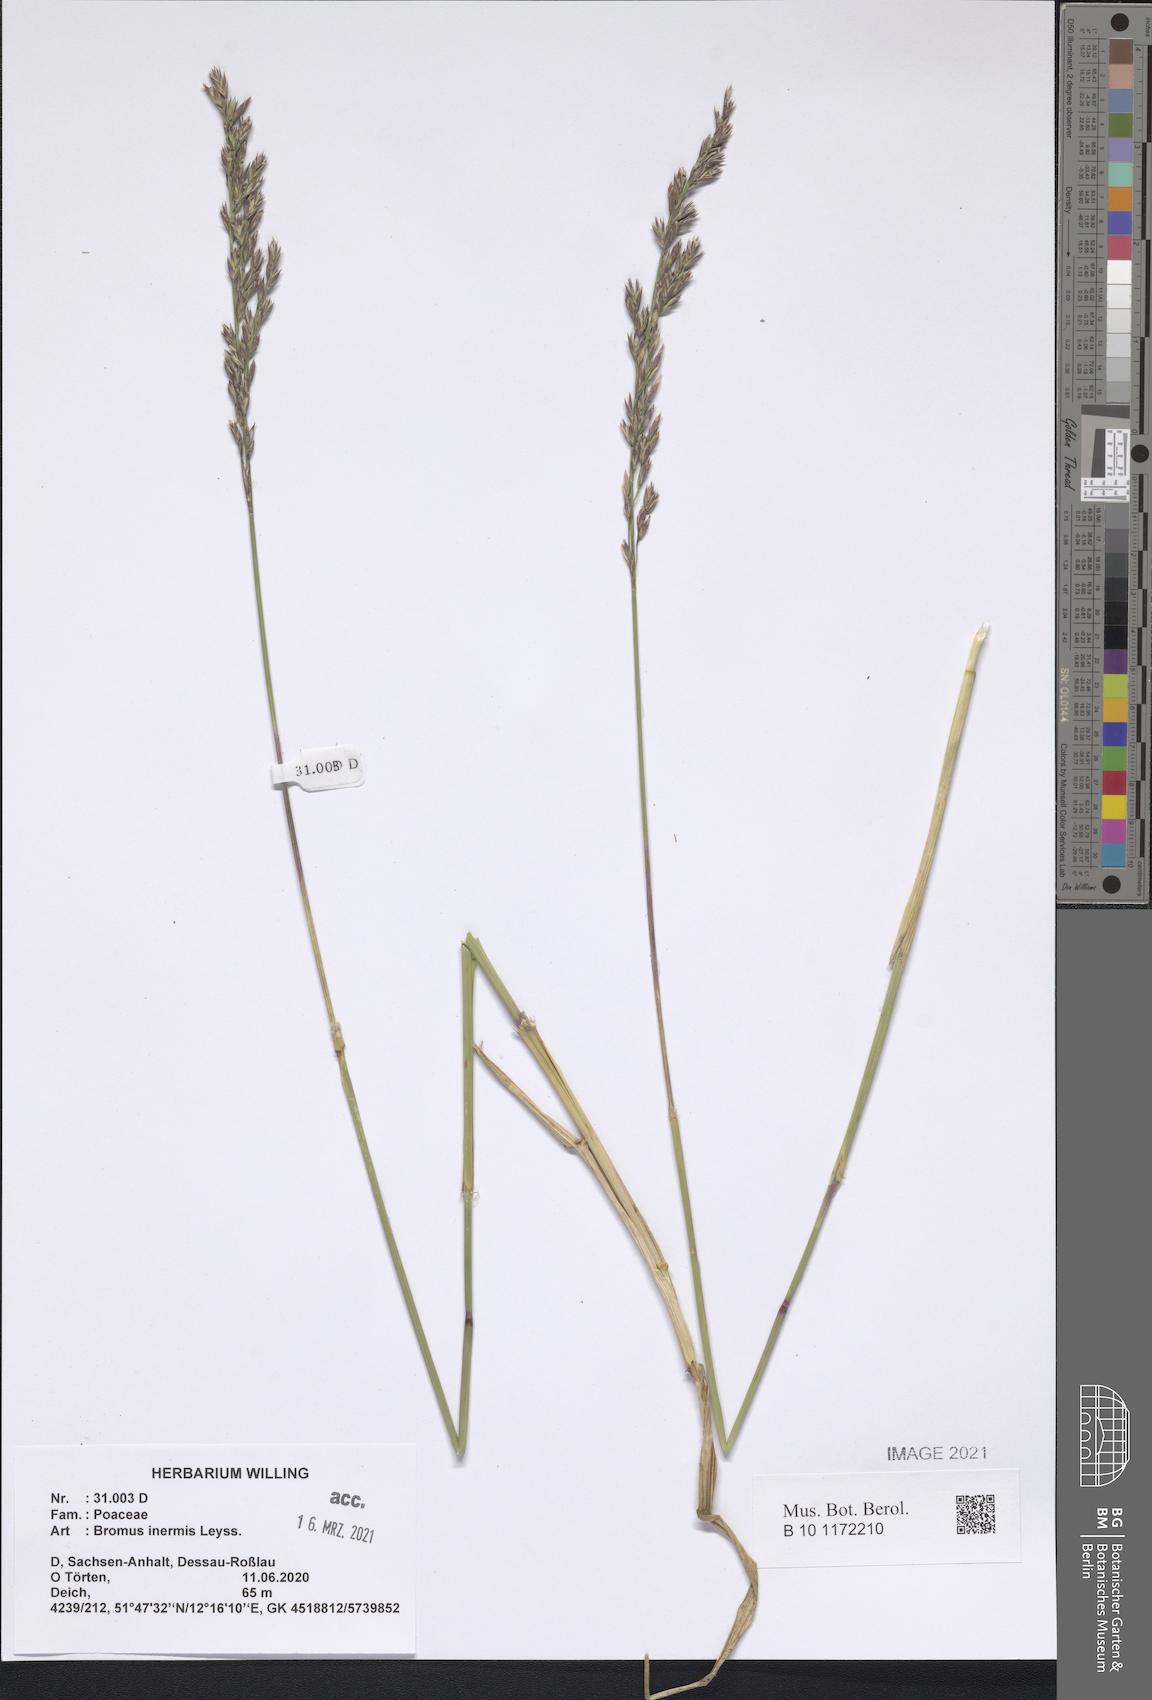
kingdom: Plantae
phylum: Tracheophyta
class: Liliopsida
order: Poales
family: Poaceae
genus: Bromus
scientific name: Bromus inermis
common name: Smooth brome
